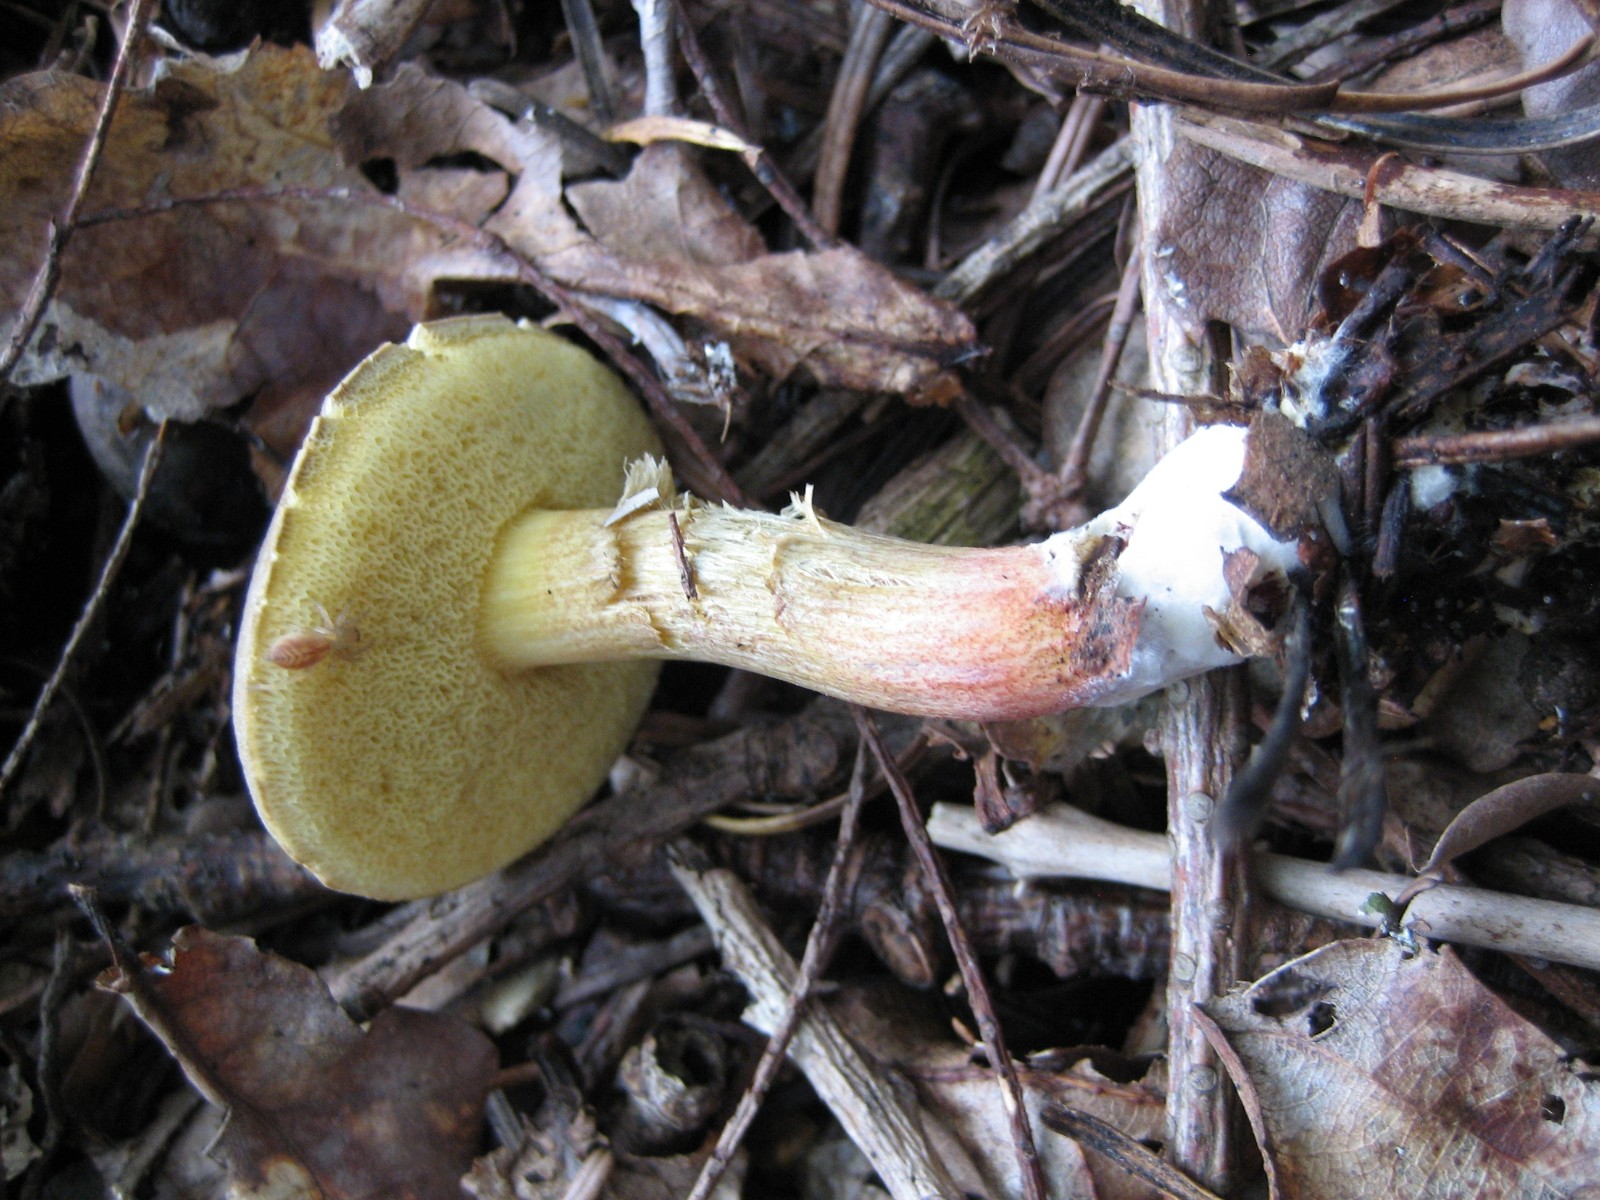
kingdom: Fungi
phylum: Basidiomycota
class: Agaricomycetes
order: Boletales
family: Boletaceae
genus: Xerocomellus
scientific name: Xerocomellus cisalpinus
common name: finsprukken rørhat
